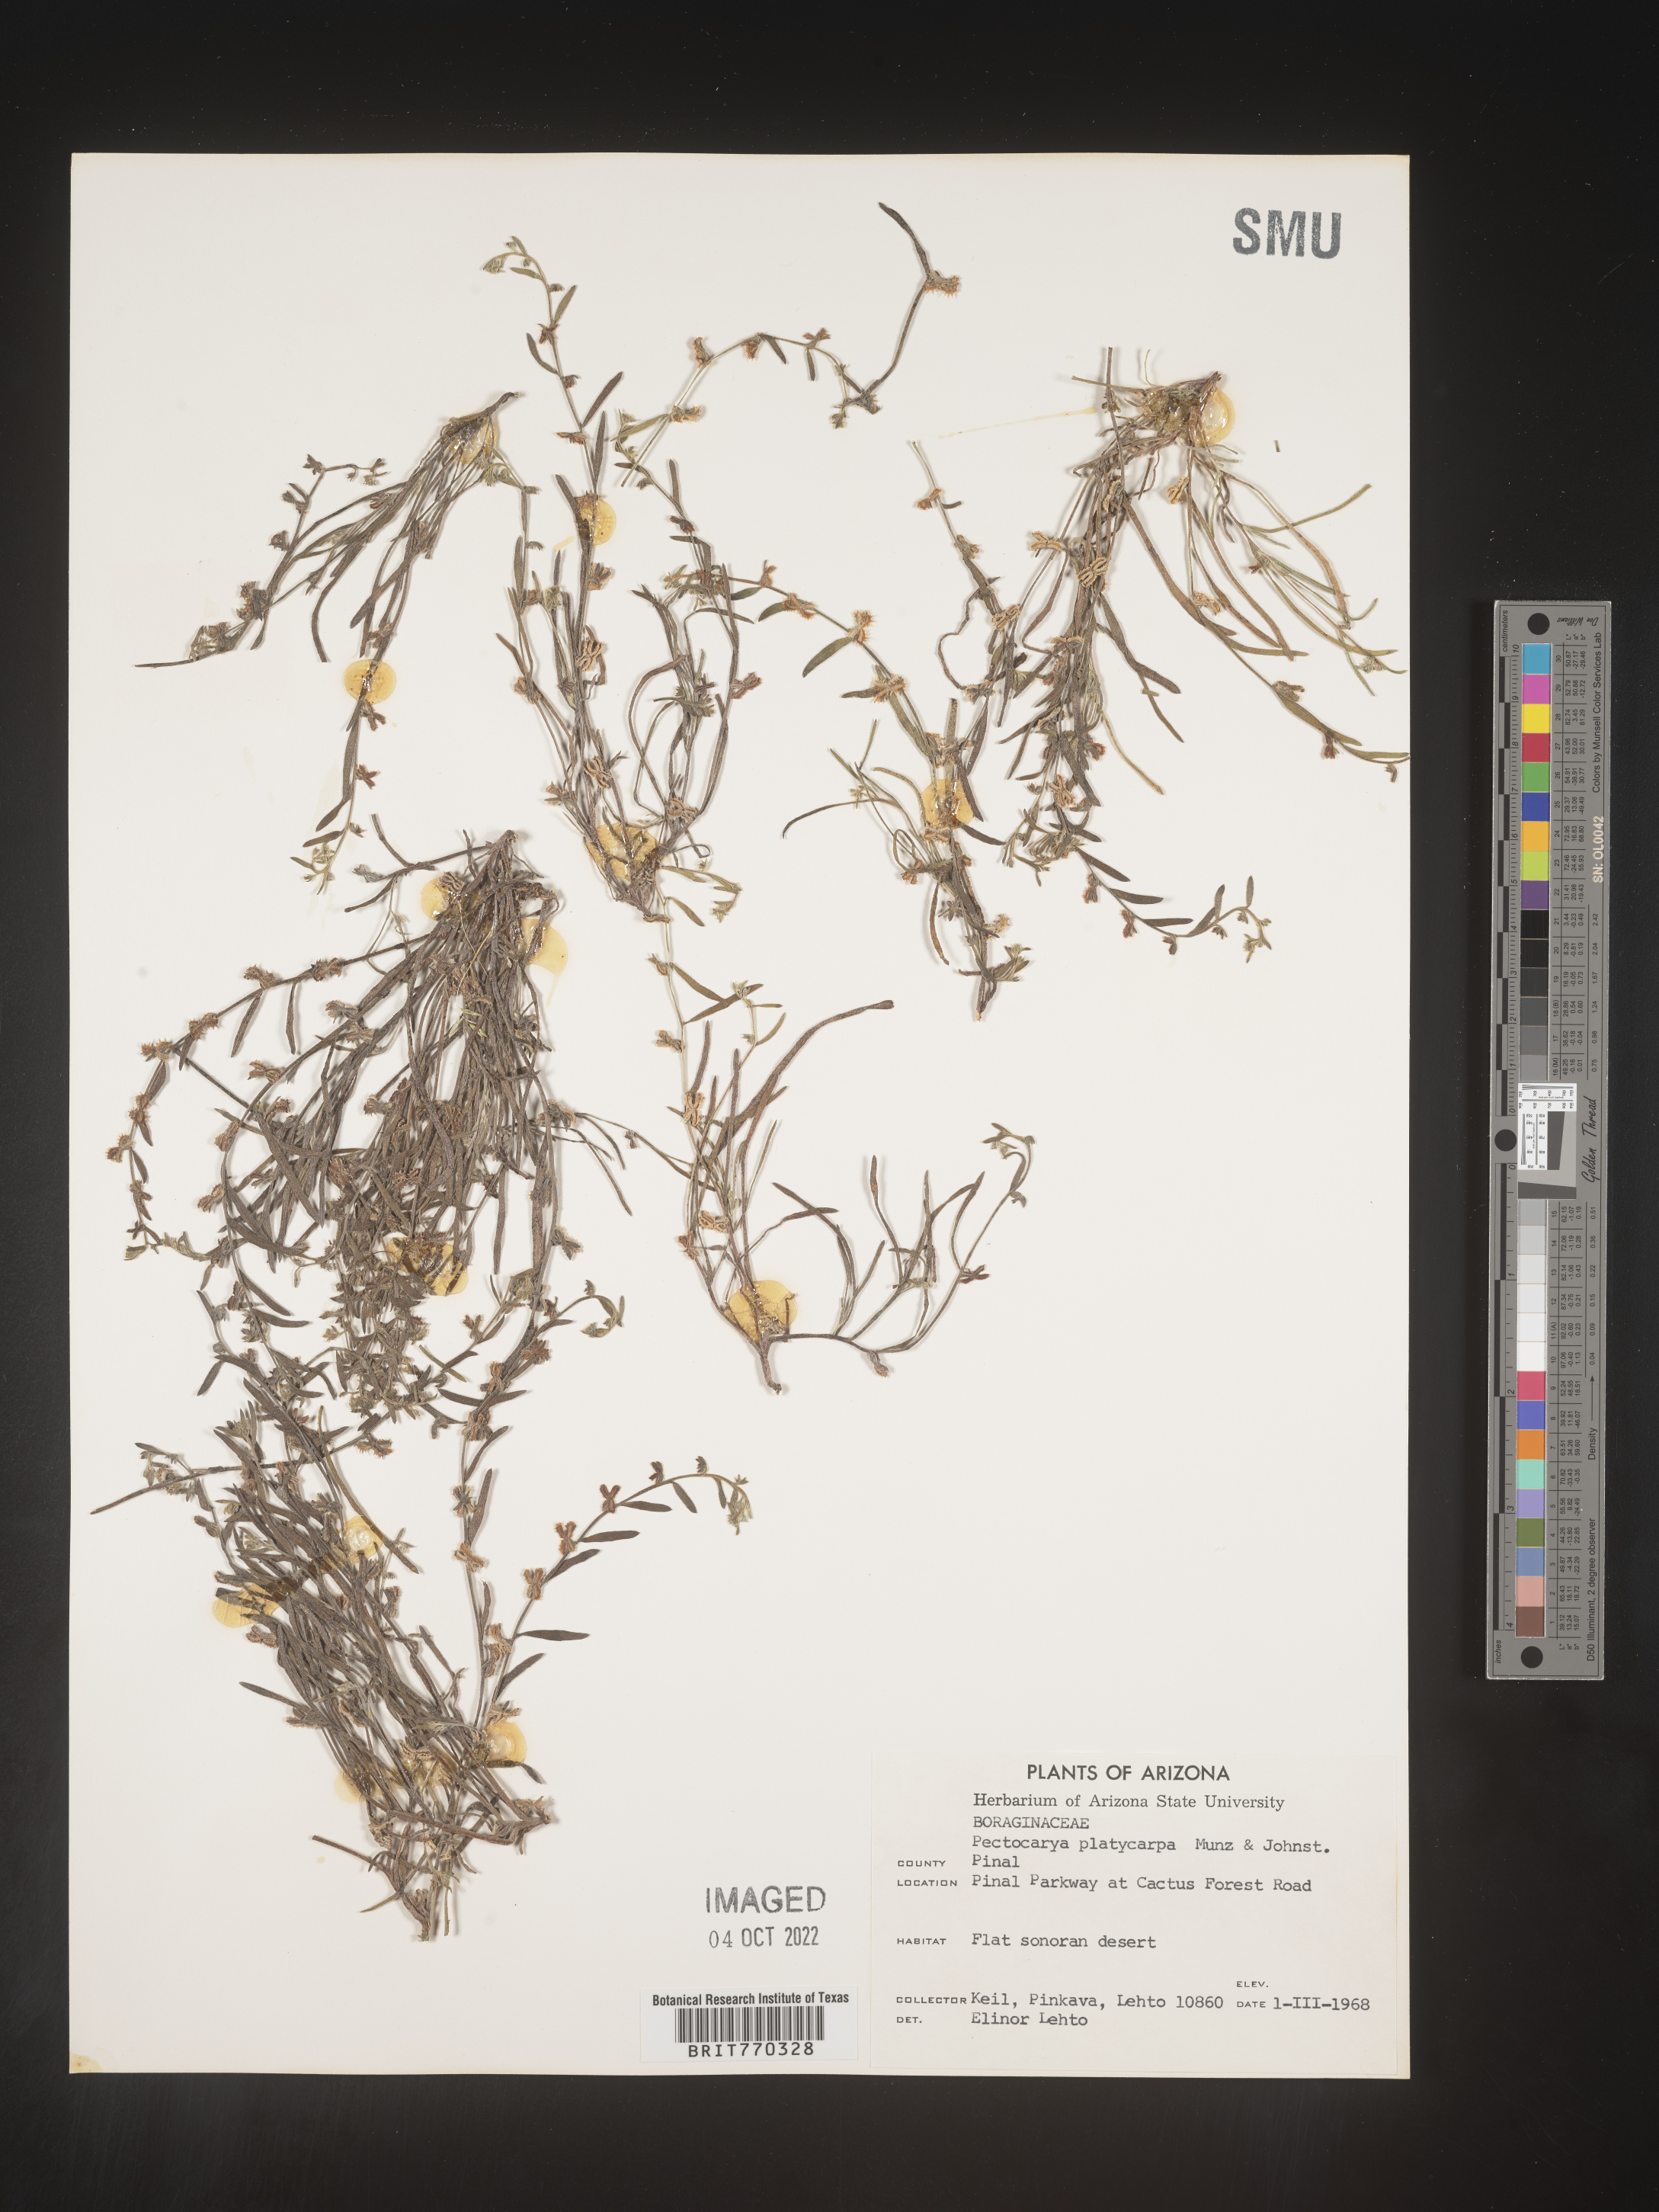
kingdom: Plantae
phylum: Tracheophyta
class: Magnoliopsida
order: Boraginales
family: Boraginaceae
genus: Pectocarya
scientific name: Pectocarya
